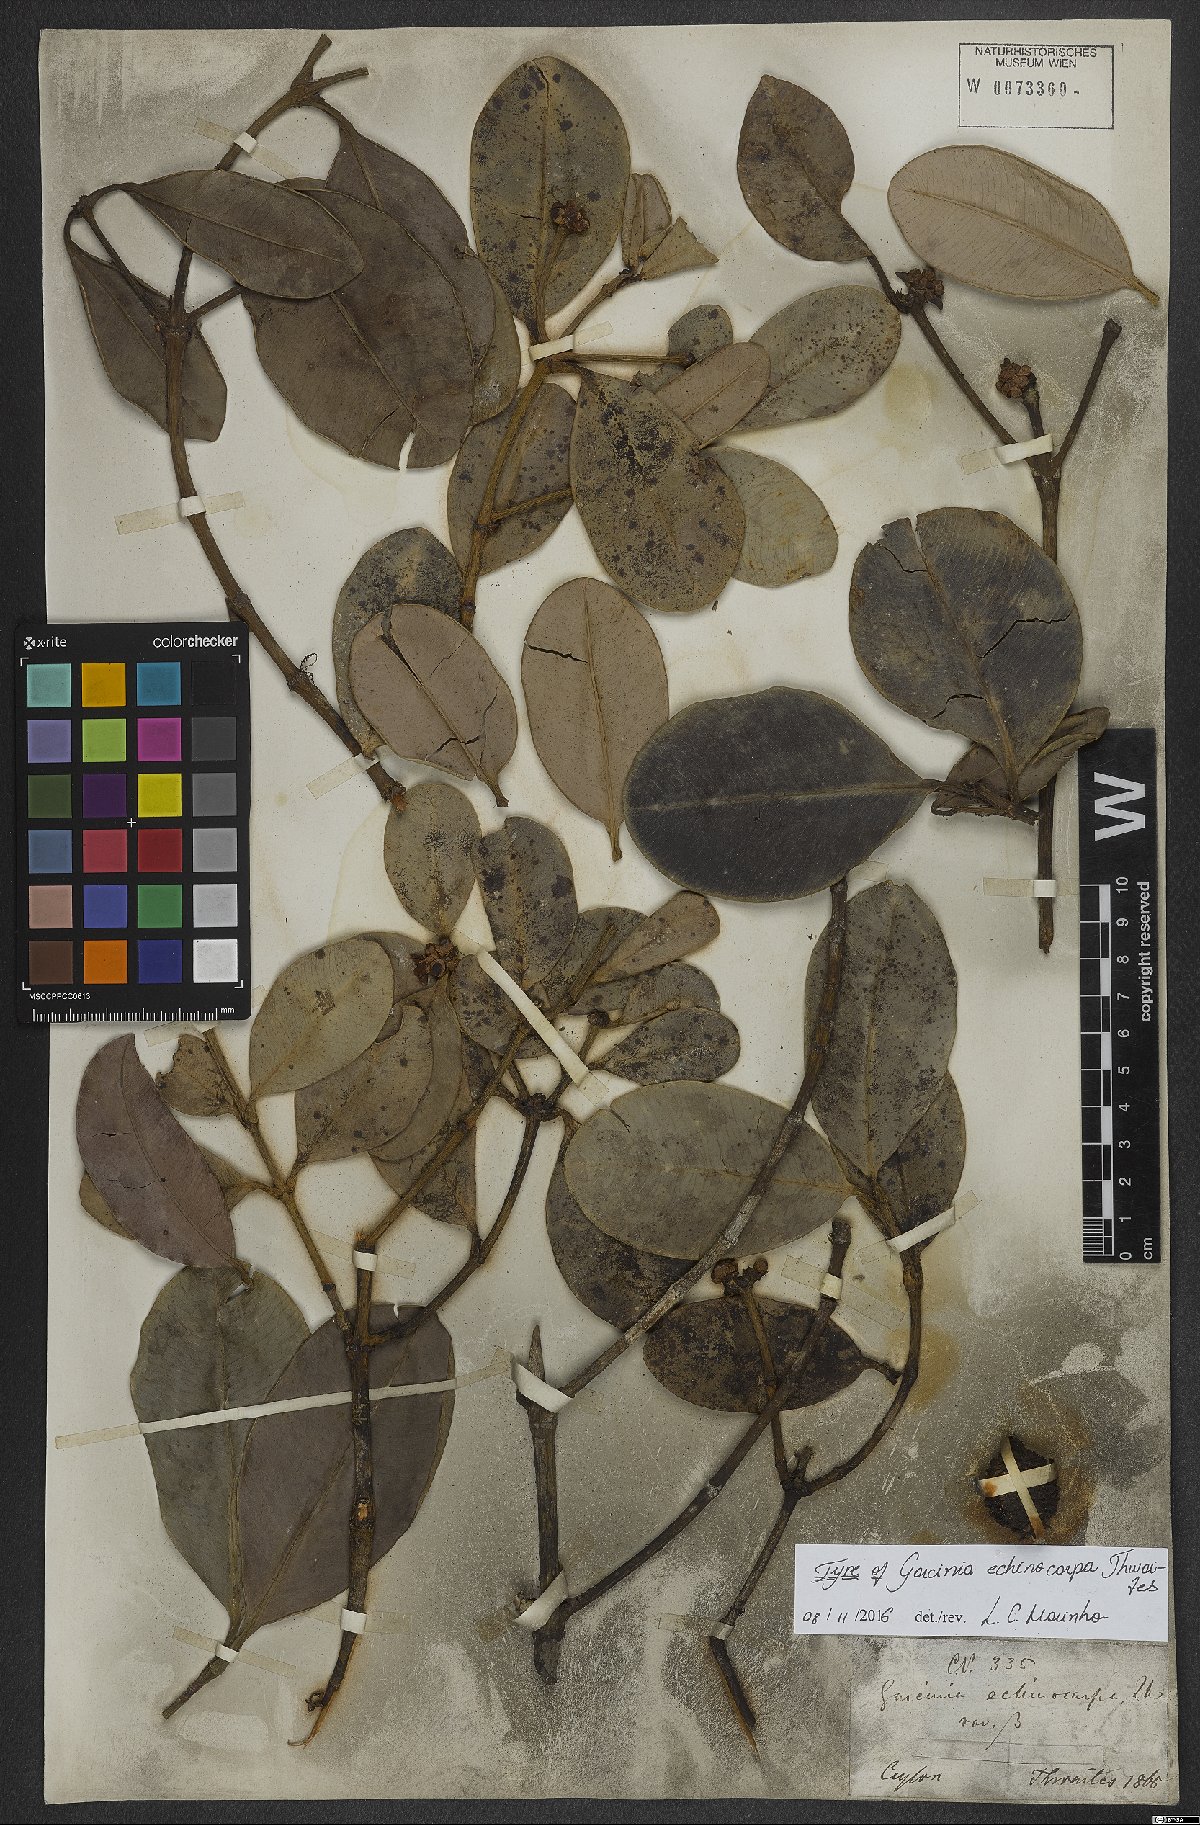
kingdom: Plantae
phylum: Tracheophyta
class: Magnoliopsida
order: Malpighiales
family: Clusiaceae
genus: Garcinia
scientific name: Garcinia echinocarpa
